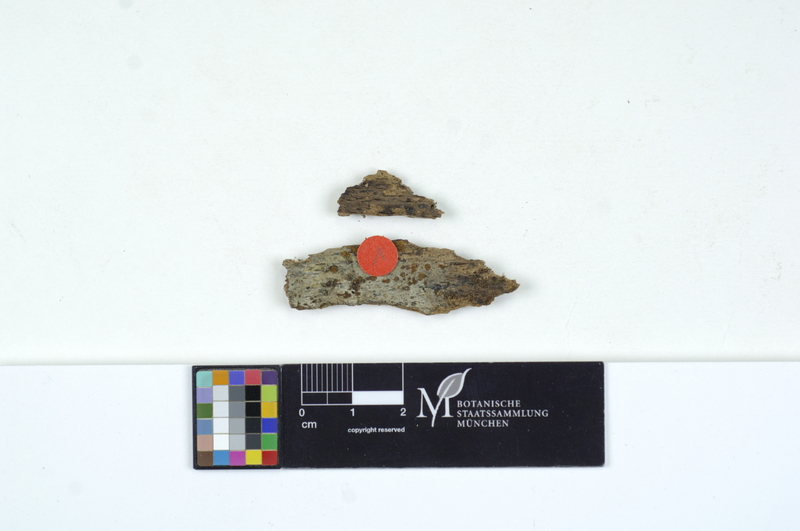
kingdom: Plantae
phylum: Tracheophyta
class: Magnoliopsida
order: Fagales
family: Fagaceae
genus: Fagus
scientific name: Fagus
